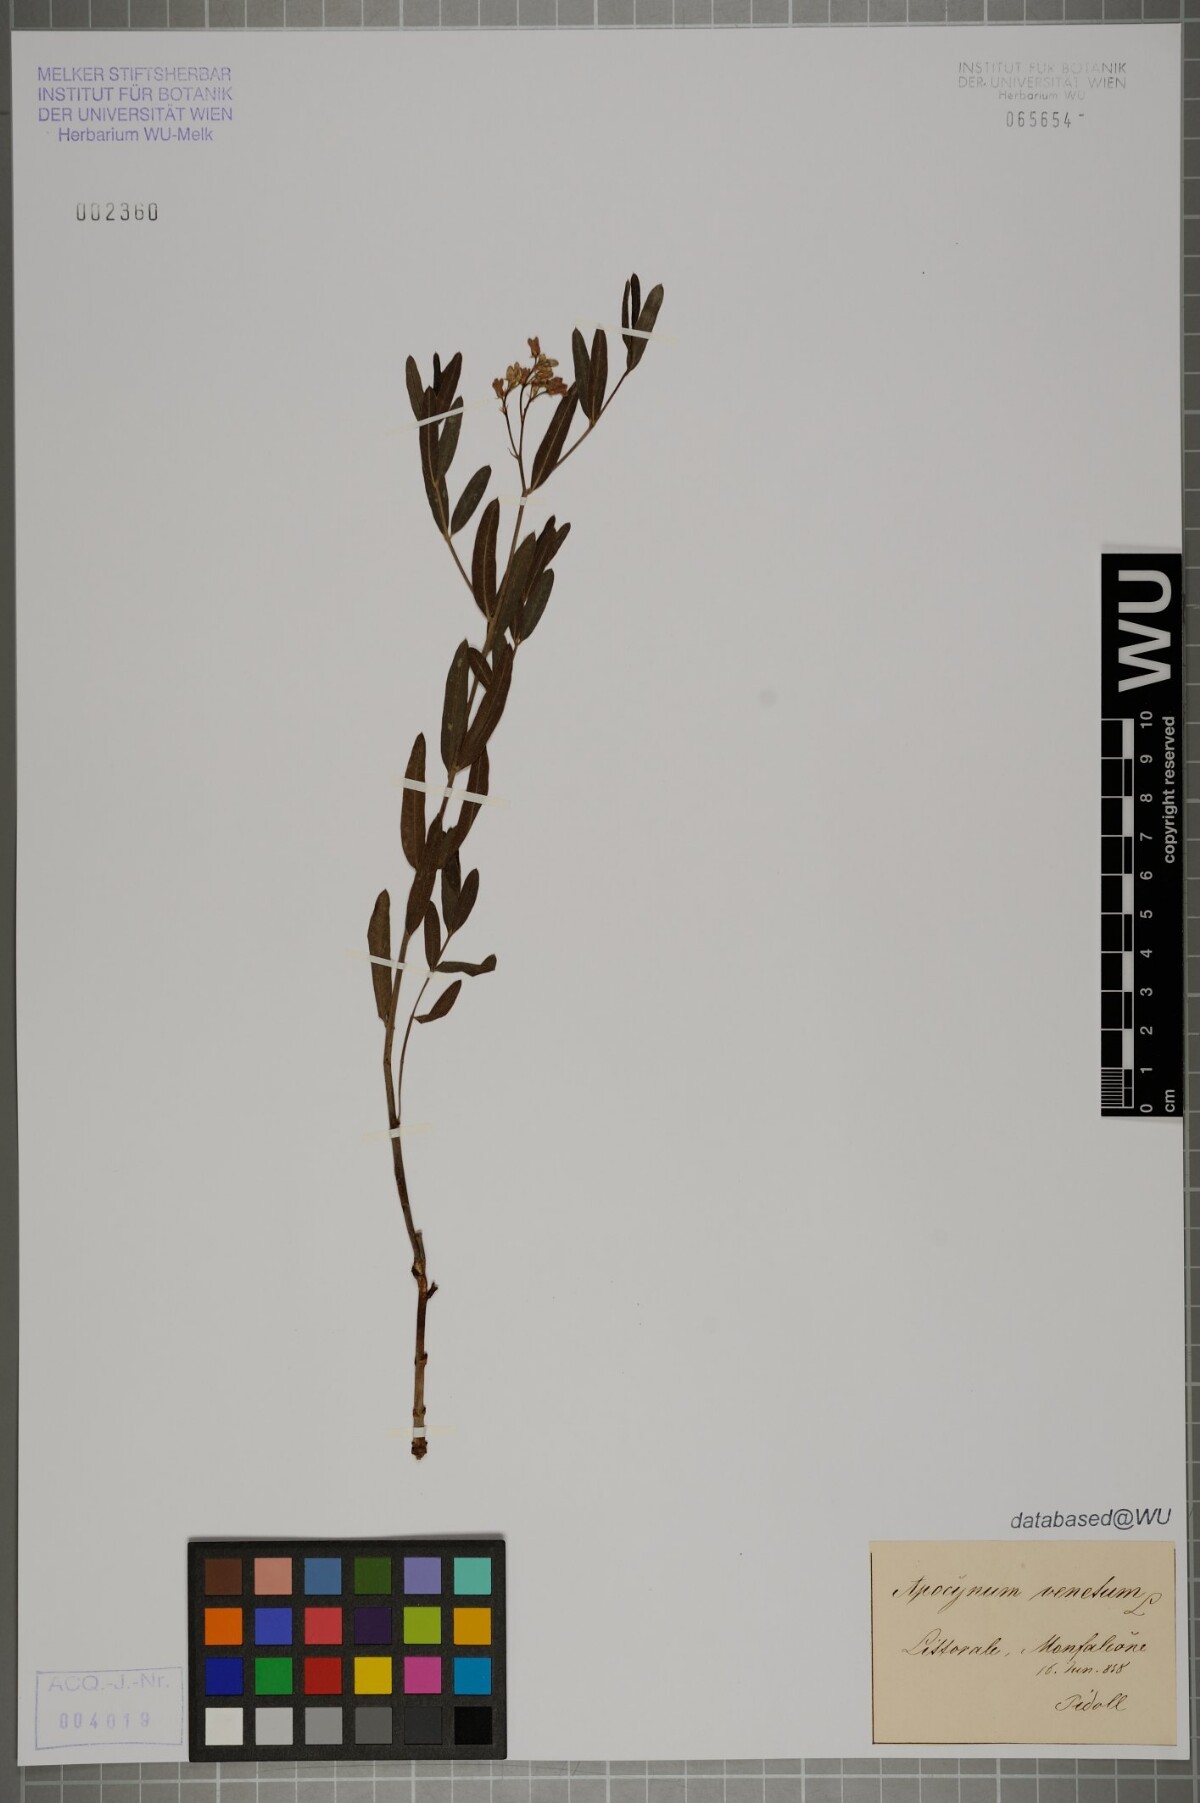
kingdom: Plantae
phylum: Tracheophyta
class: Magnoliopsida
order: Gentianales
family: Apocynaceae
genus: Poacynum
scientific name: Poacynum venetum
